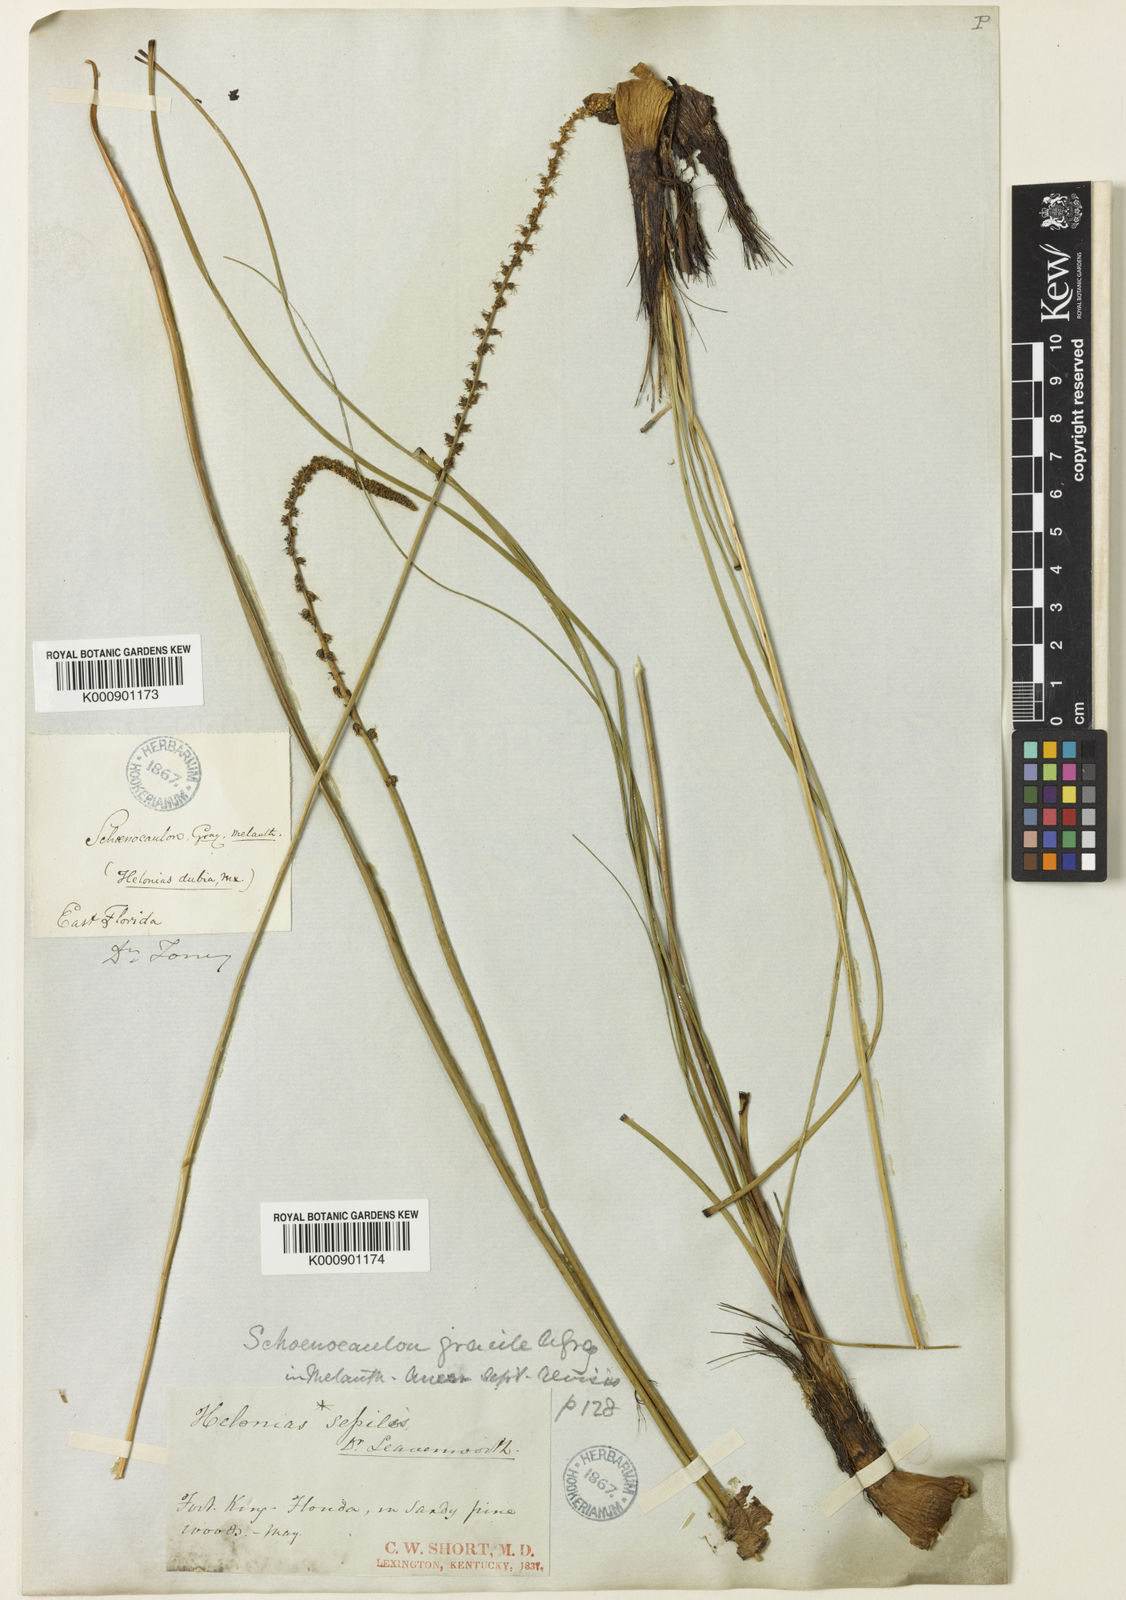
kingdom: Plantae
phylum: Tracheophyta
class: Liliopsida
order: Liliales
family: Melanthiaceae
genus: Schoenocaulon
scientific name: Schoenocaulon dubium
